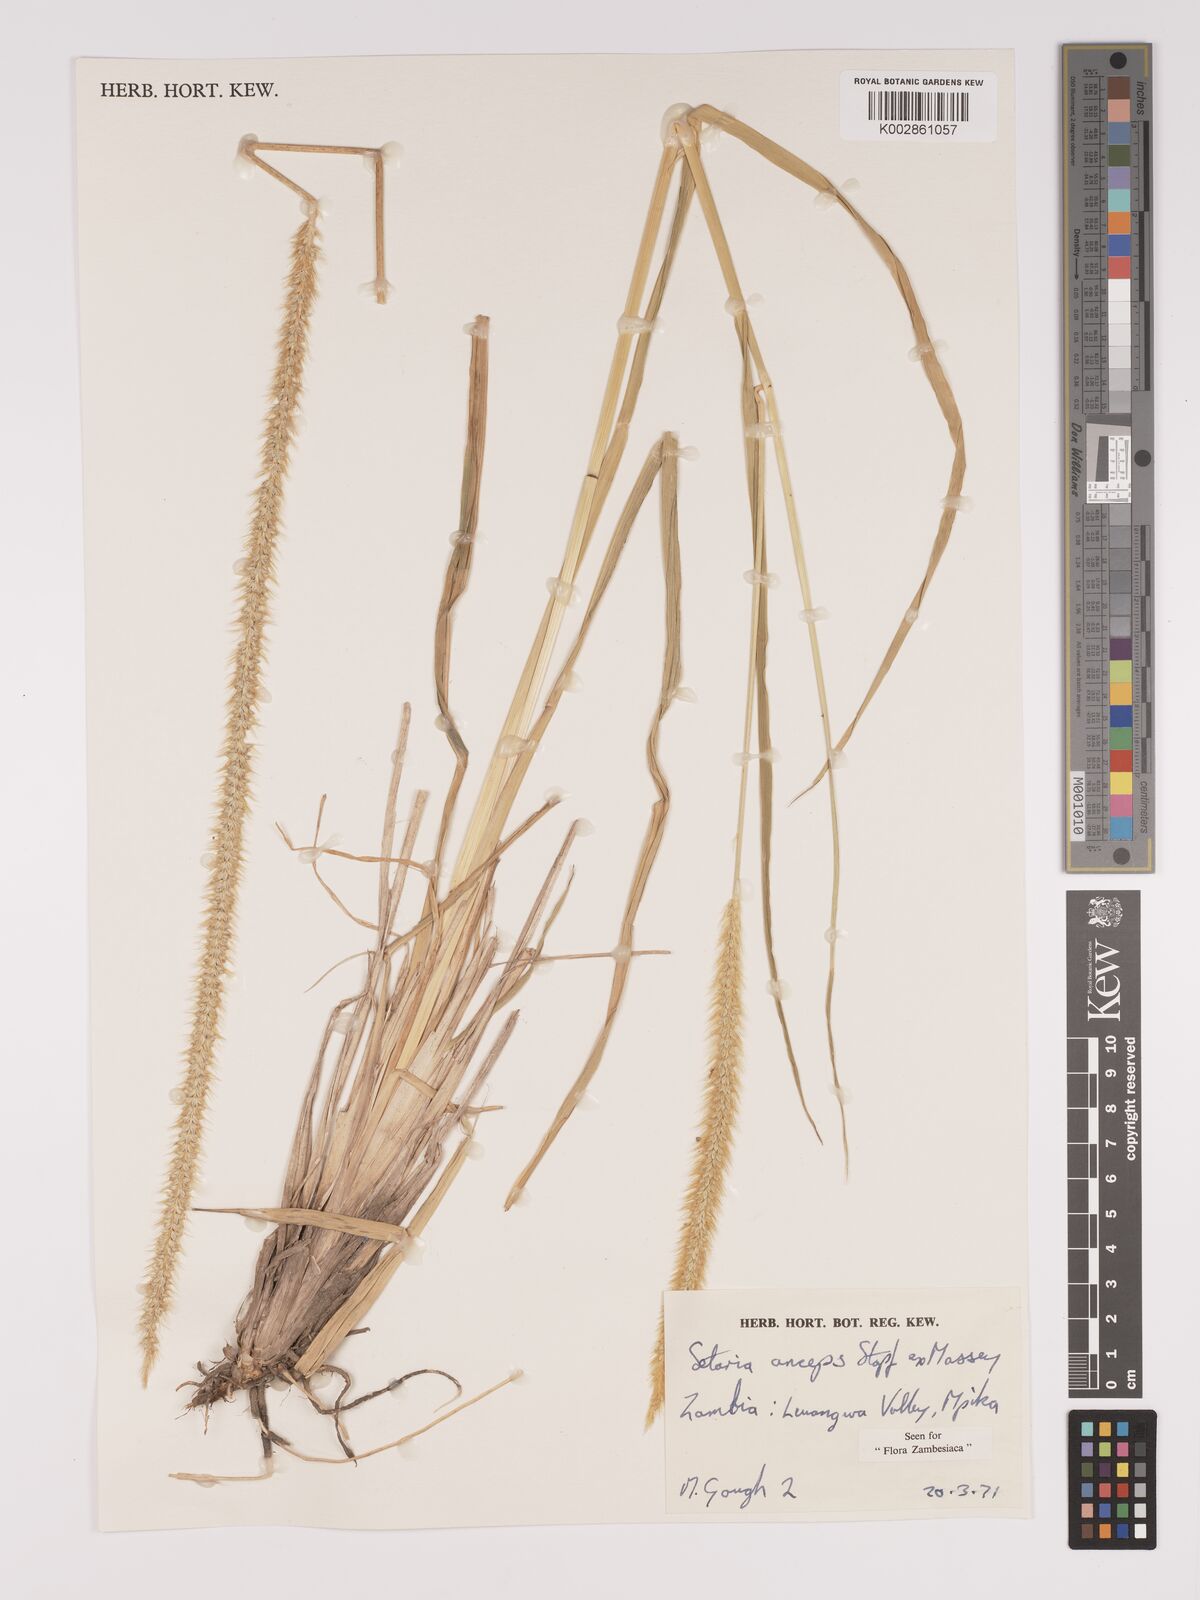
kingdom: Plantae
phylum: Tracheophyta
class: Liliopsida
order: Poales
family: Poaceae
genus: Setaria
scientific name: Setaria sphacelata
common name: African bristlegrass
